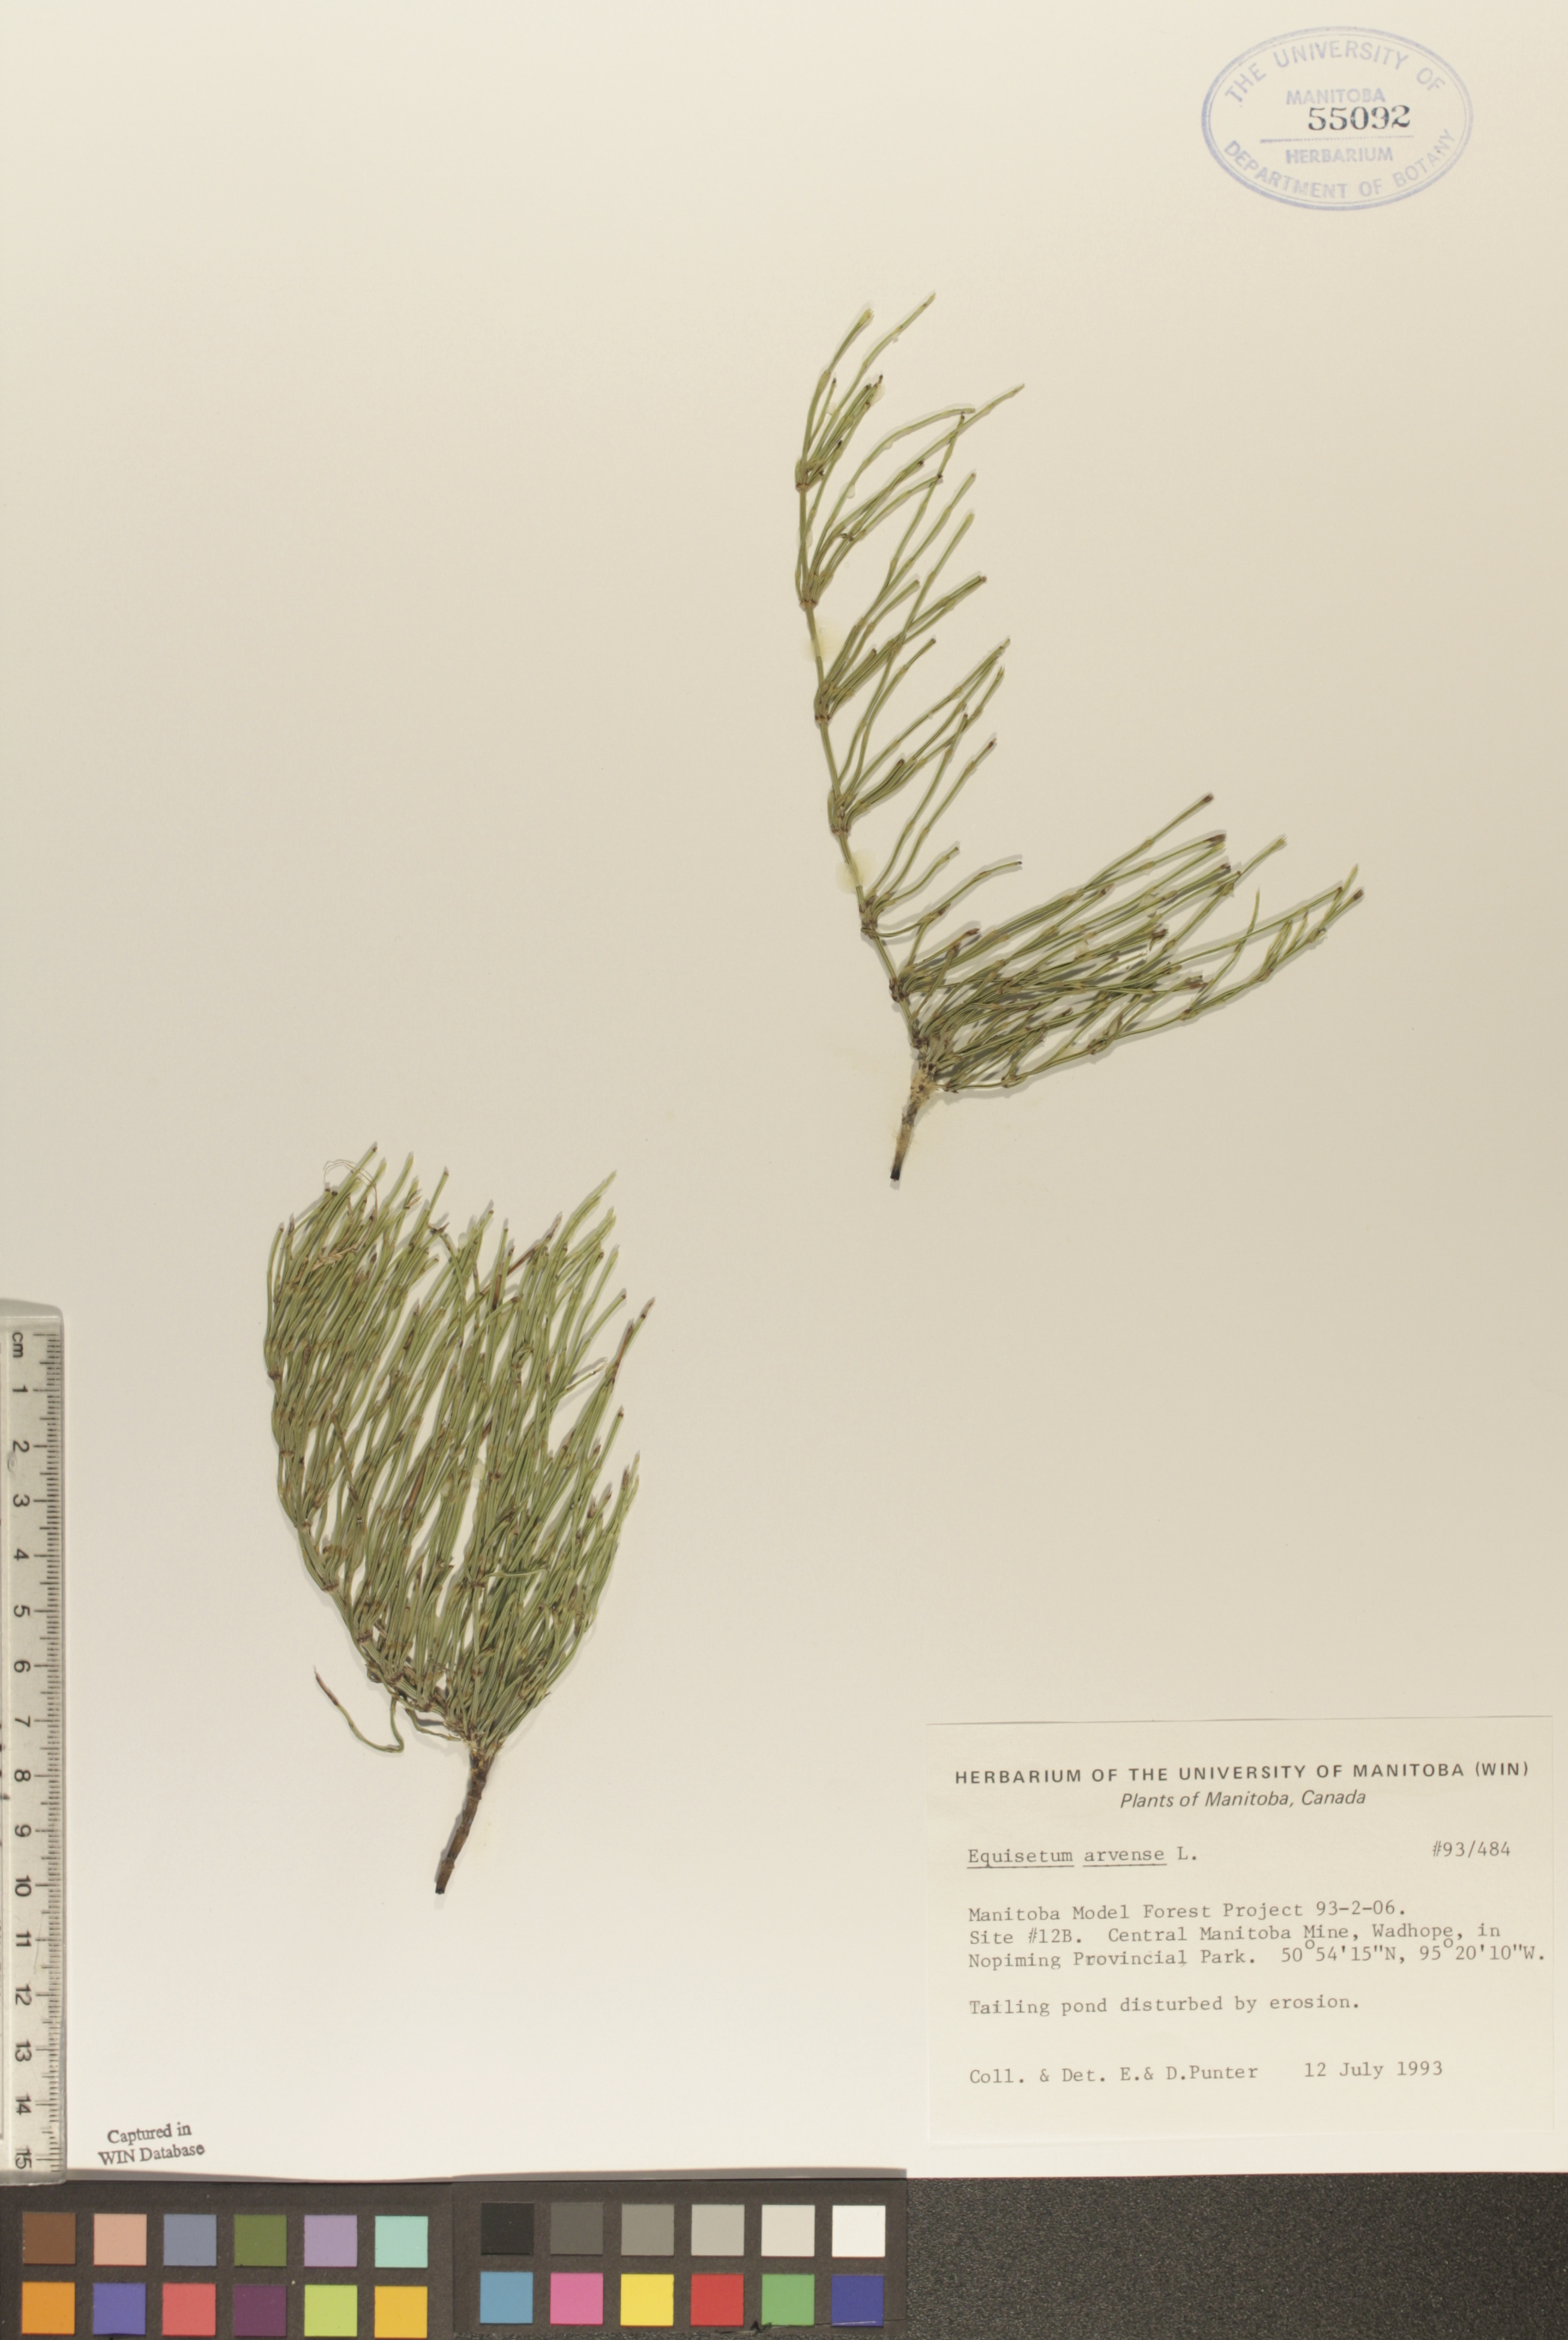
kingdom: Plantae
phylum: Tracheophyta
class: Polypodiopsida
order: Equisetales
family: Equisetaceae
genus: Equisetum
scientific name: Equisetum arvense
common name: Field horsetail
